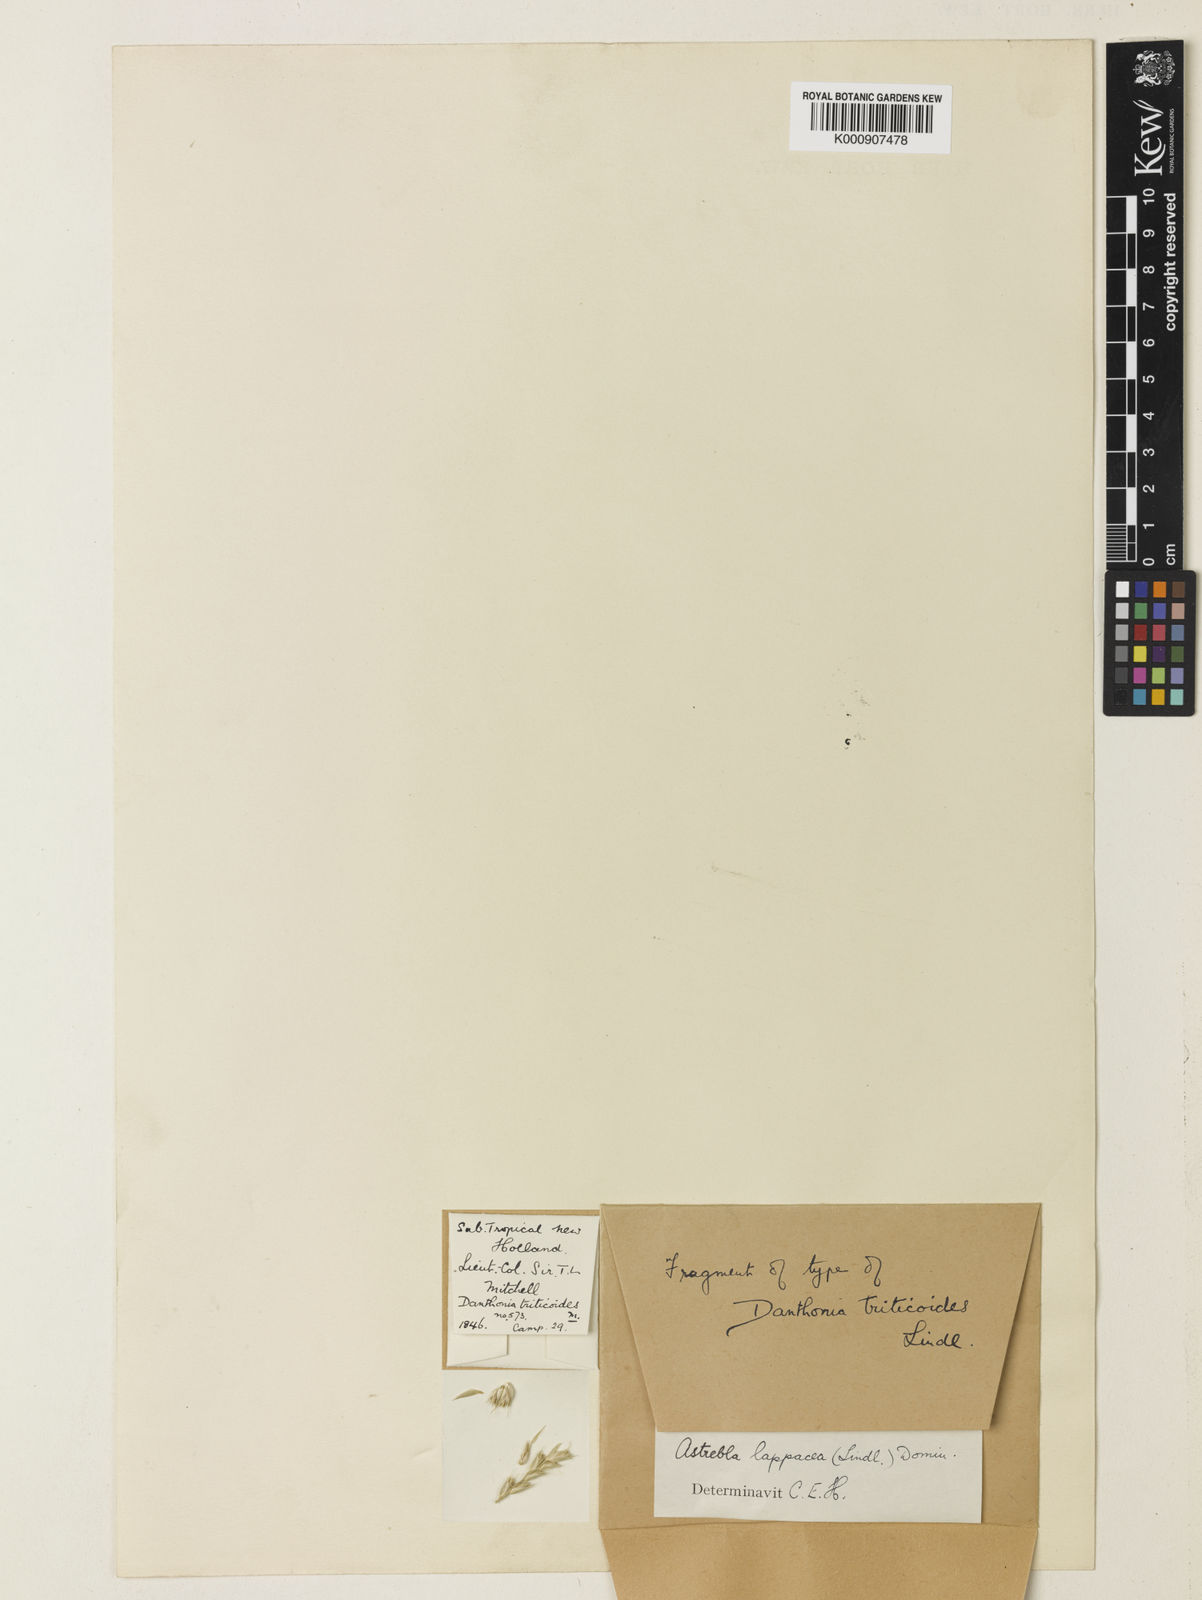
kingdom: Plantae
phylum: Tracheophyta
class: Liliopsida
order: Poales
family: Poaceae
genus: Astrebla
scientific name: Astrebla lappacea
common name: Curly mitchell grass
